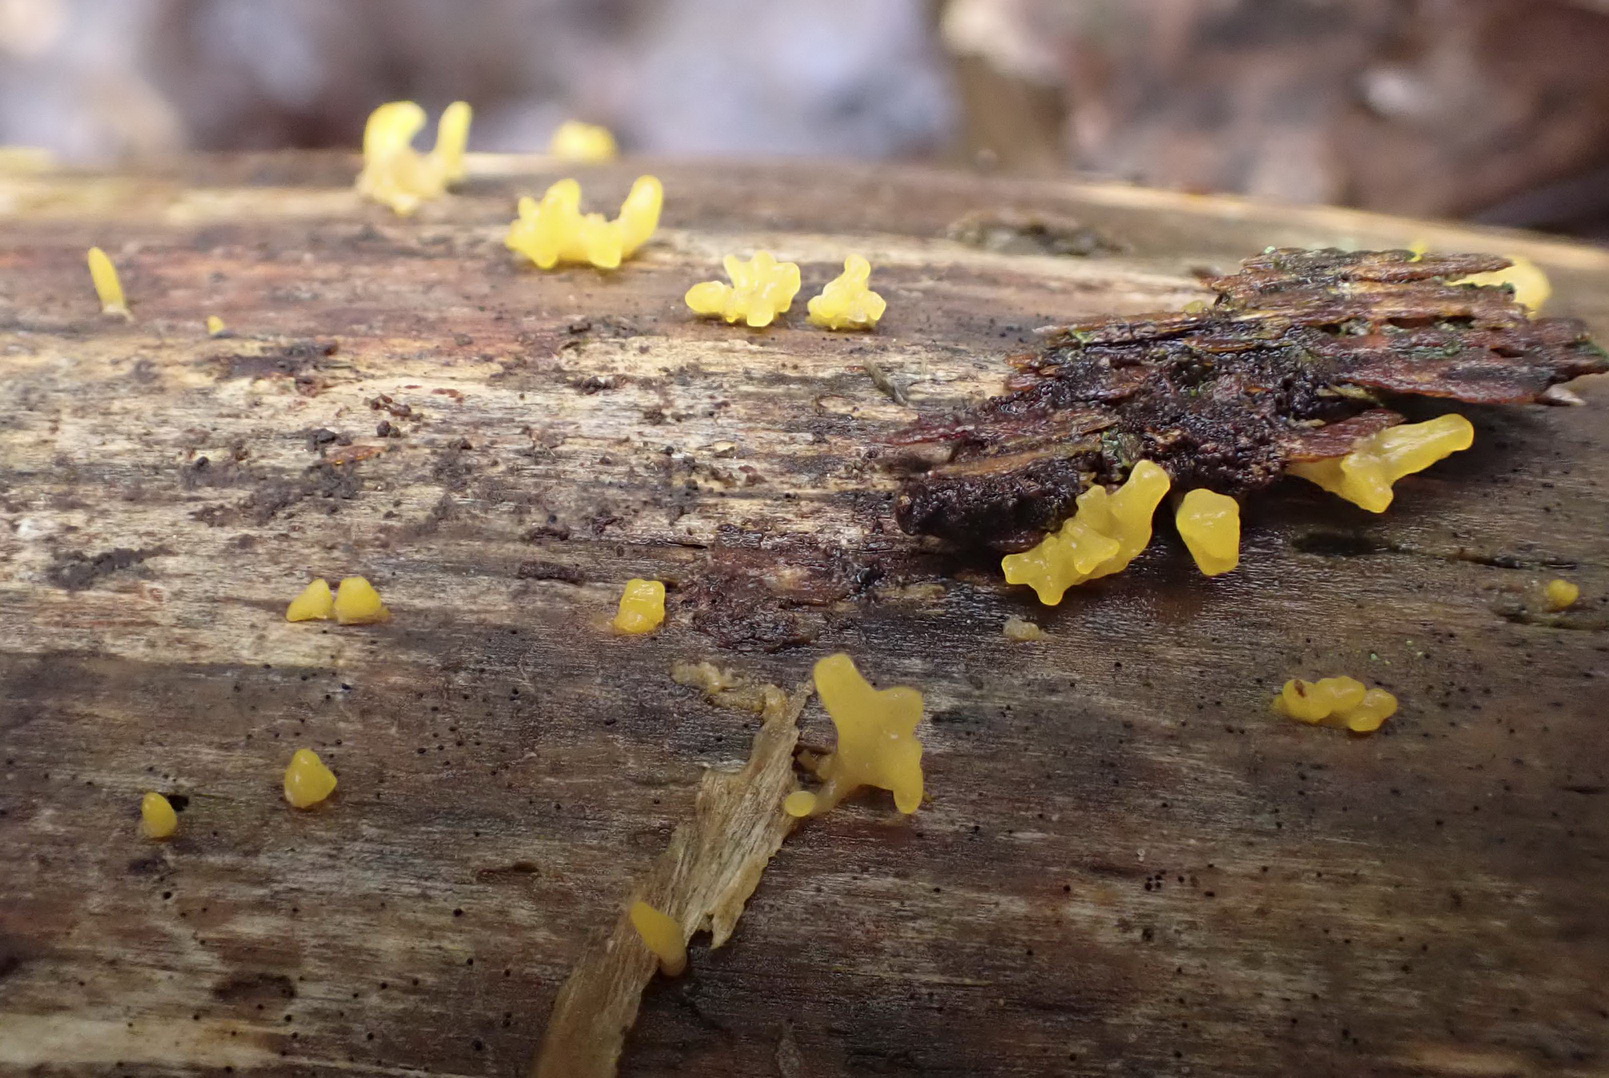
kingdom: Fungi
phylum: Basidiomycota
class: Dacrymycetes
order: Dacrymycetales
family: Dacrymycetaceae
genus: Calocera
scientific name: Calocera furcata
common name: fyrre-guldgaffel
